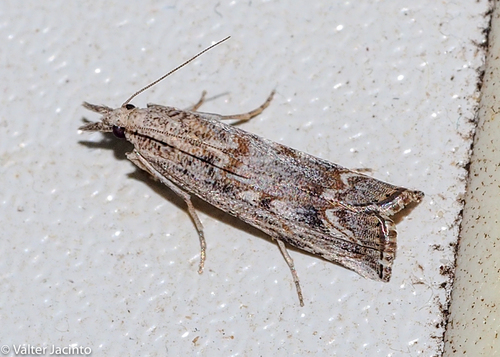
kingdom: Animalia
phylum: Arthropoda
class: Insecta
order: Lepidoptera
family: Crambidae
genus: Agriphila
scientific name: Agriphila
